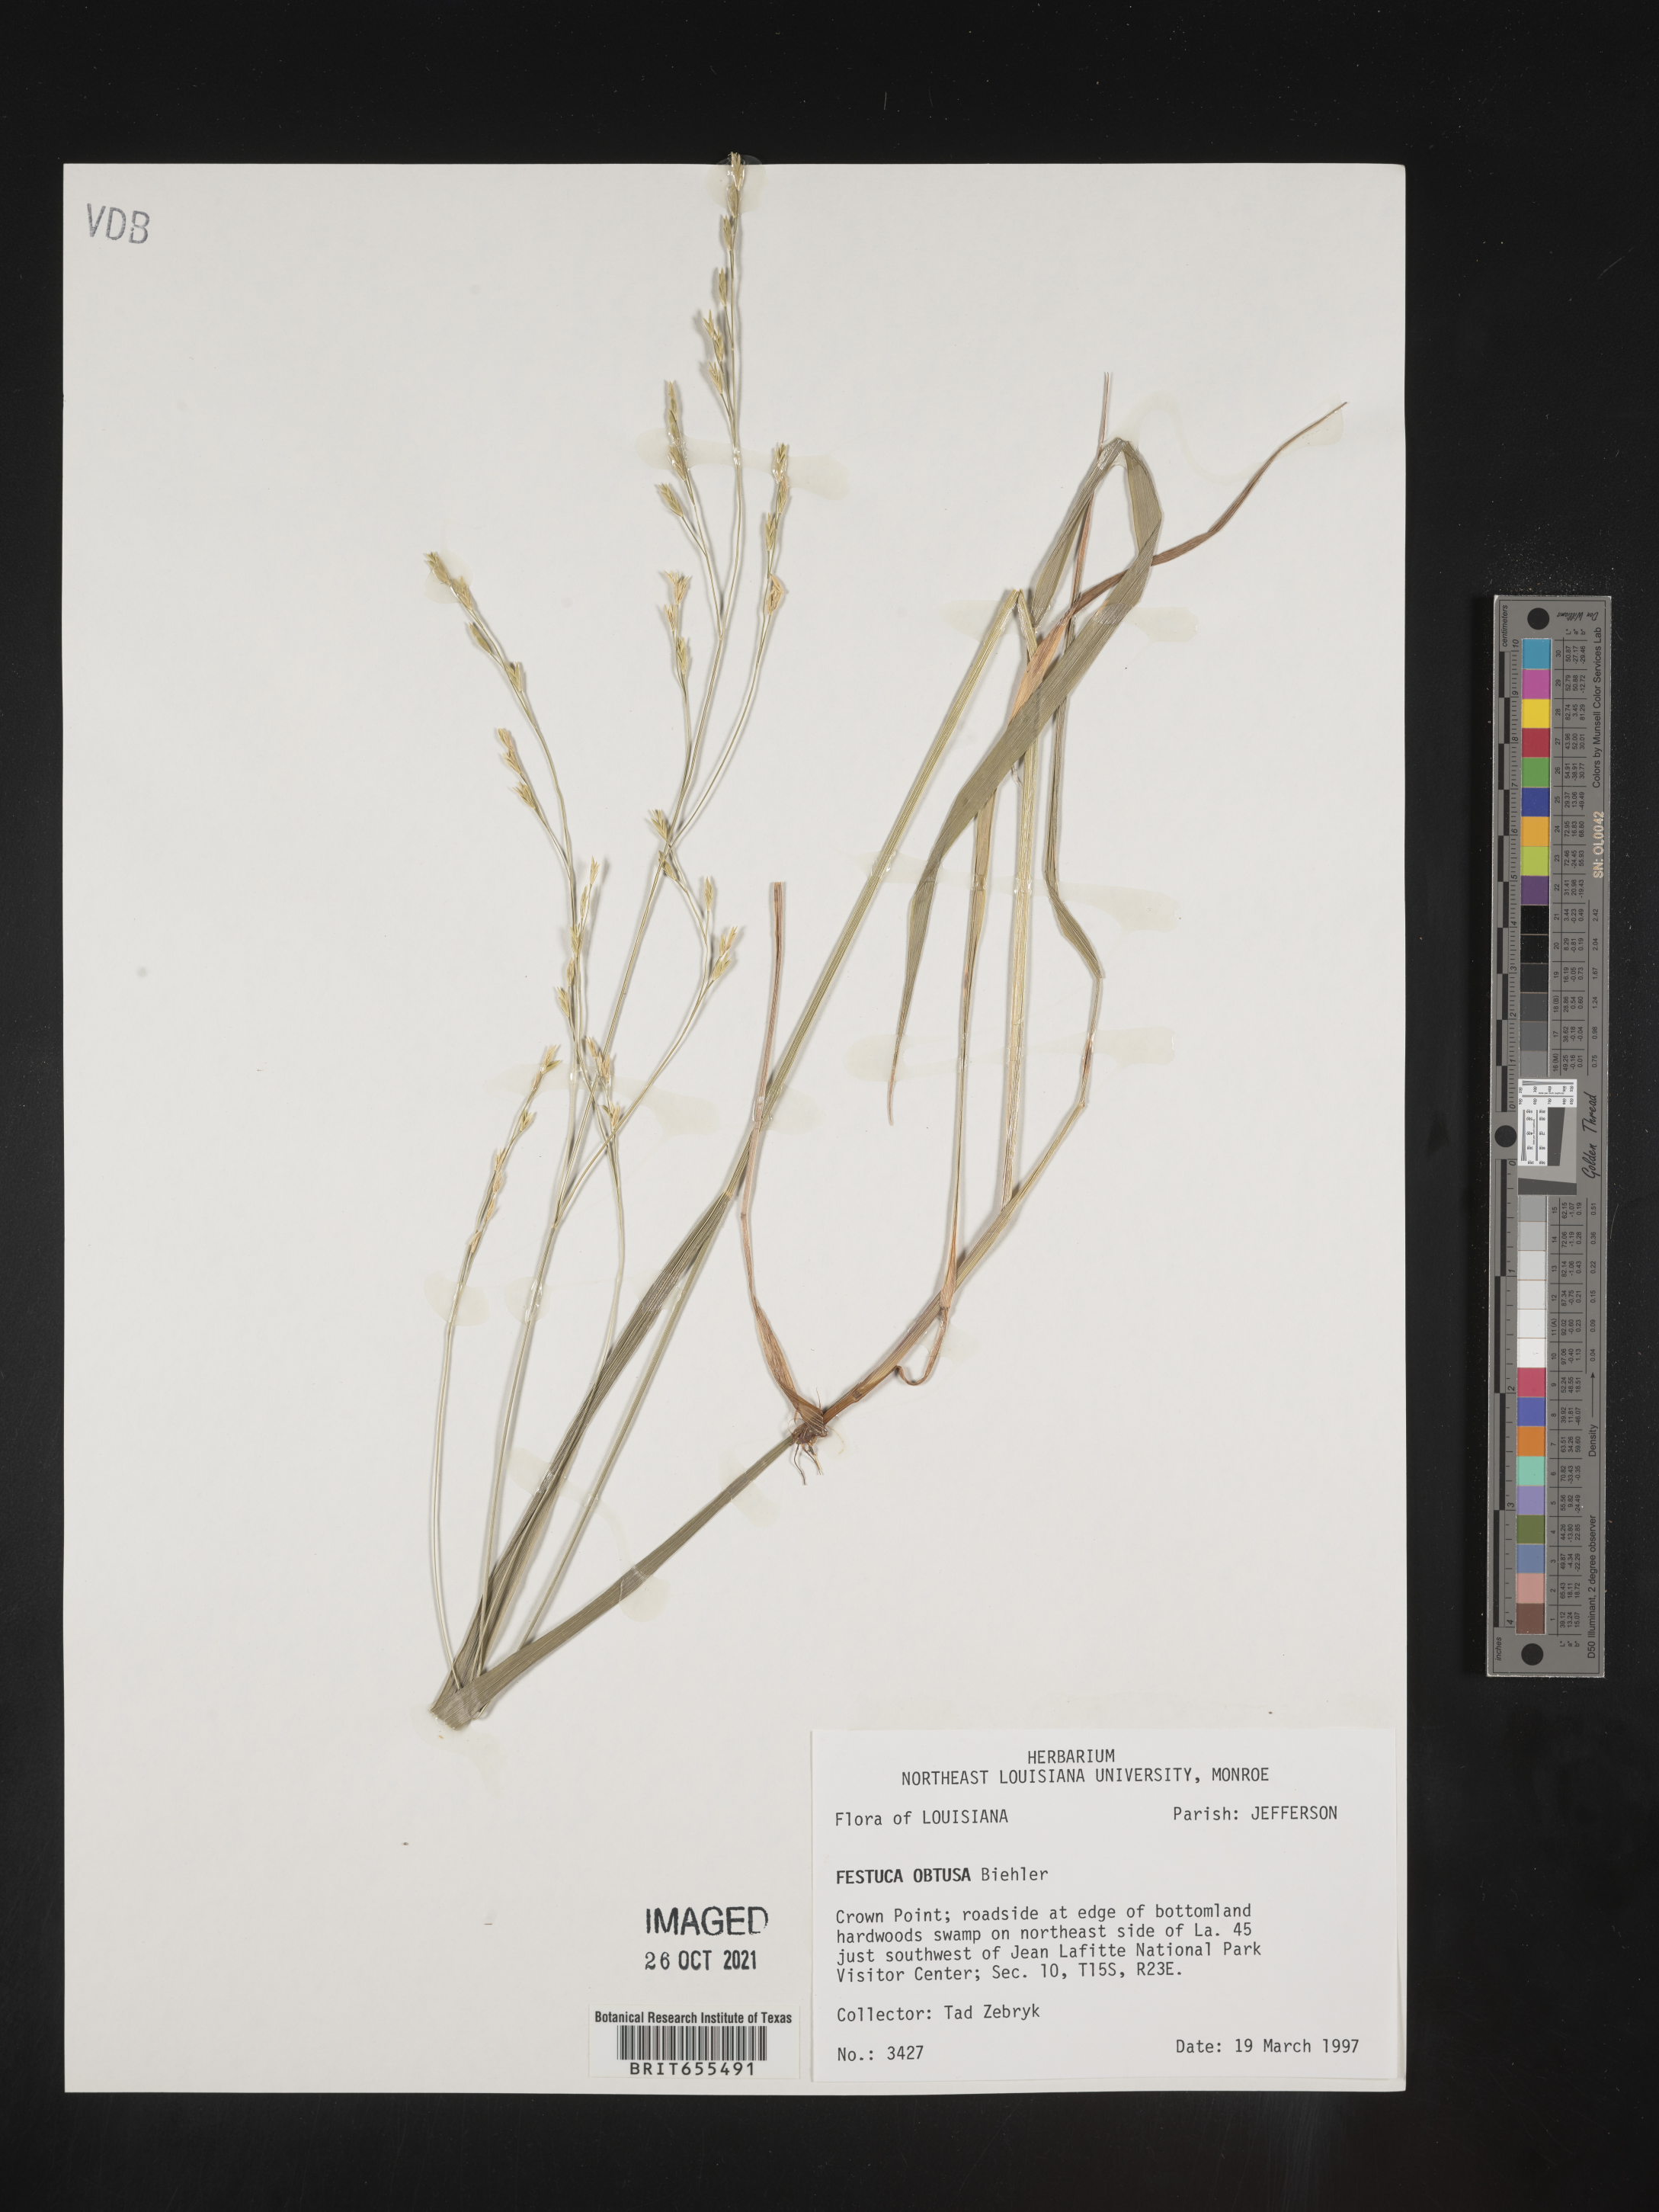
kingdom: Plantae
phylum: Tracheophyta
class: Liliopsida
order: Poales
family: Poaceae
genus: Festuca
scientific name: Festuca
